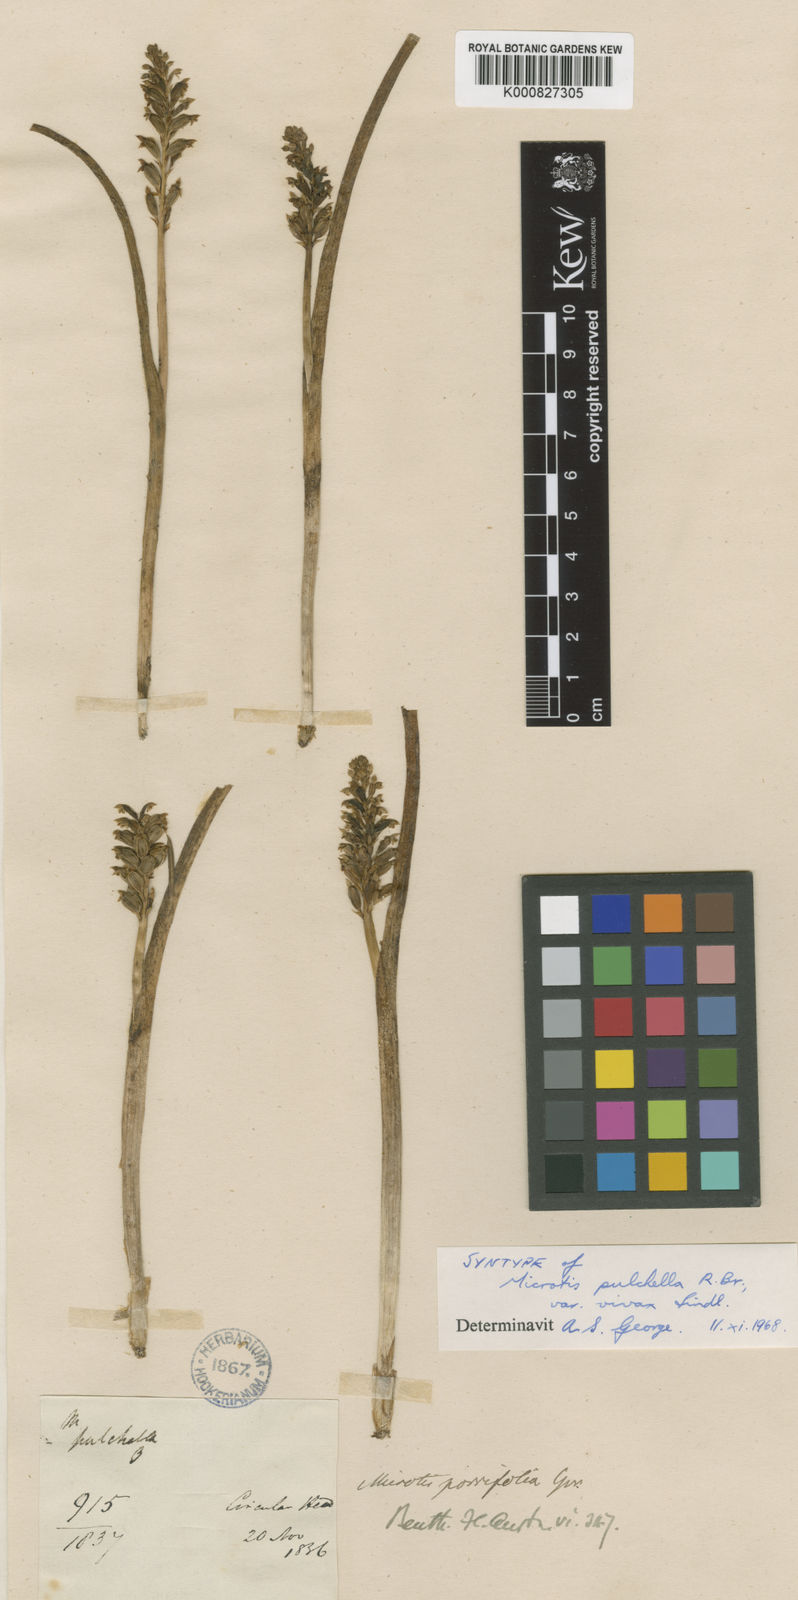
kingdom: Plantae
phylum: Tracheophyta
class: Liliopsida
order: Asparagales
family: Orchidaceae
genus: Microtis
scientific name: Microtis unifolia
